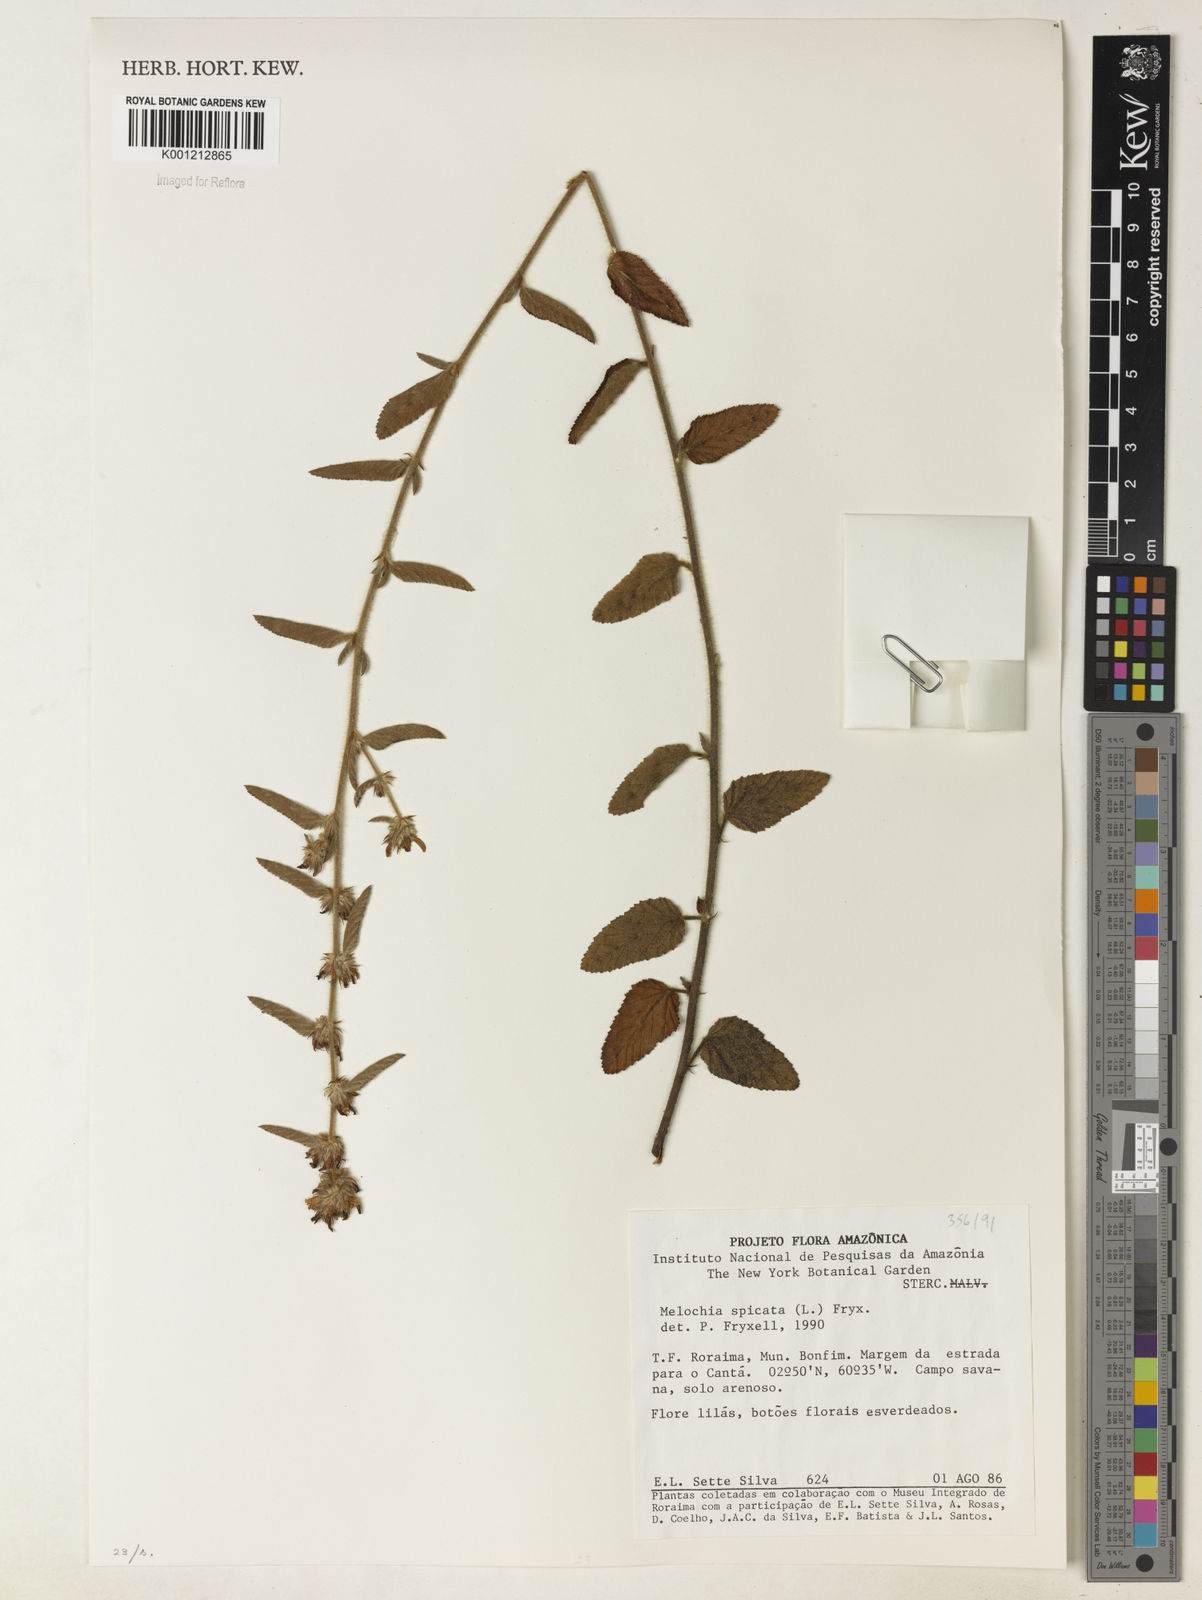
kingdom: Plantae
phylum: Tracheophyta
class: Magnoliopsida
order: Malvales
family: Malvaceae
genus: Melochia
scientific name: Melochia spicata
